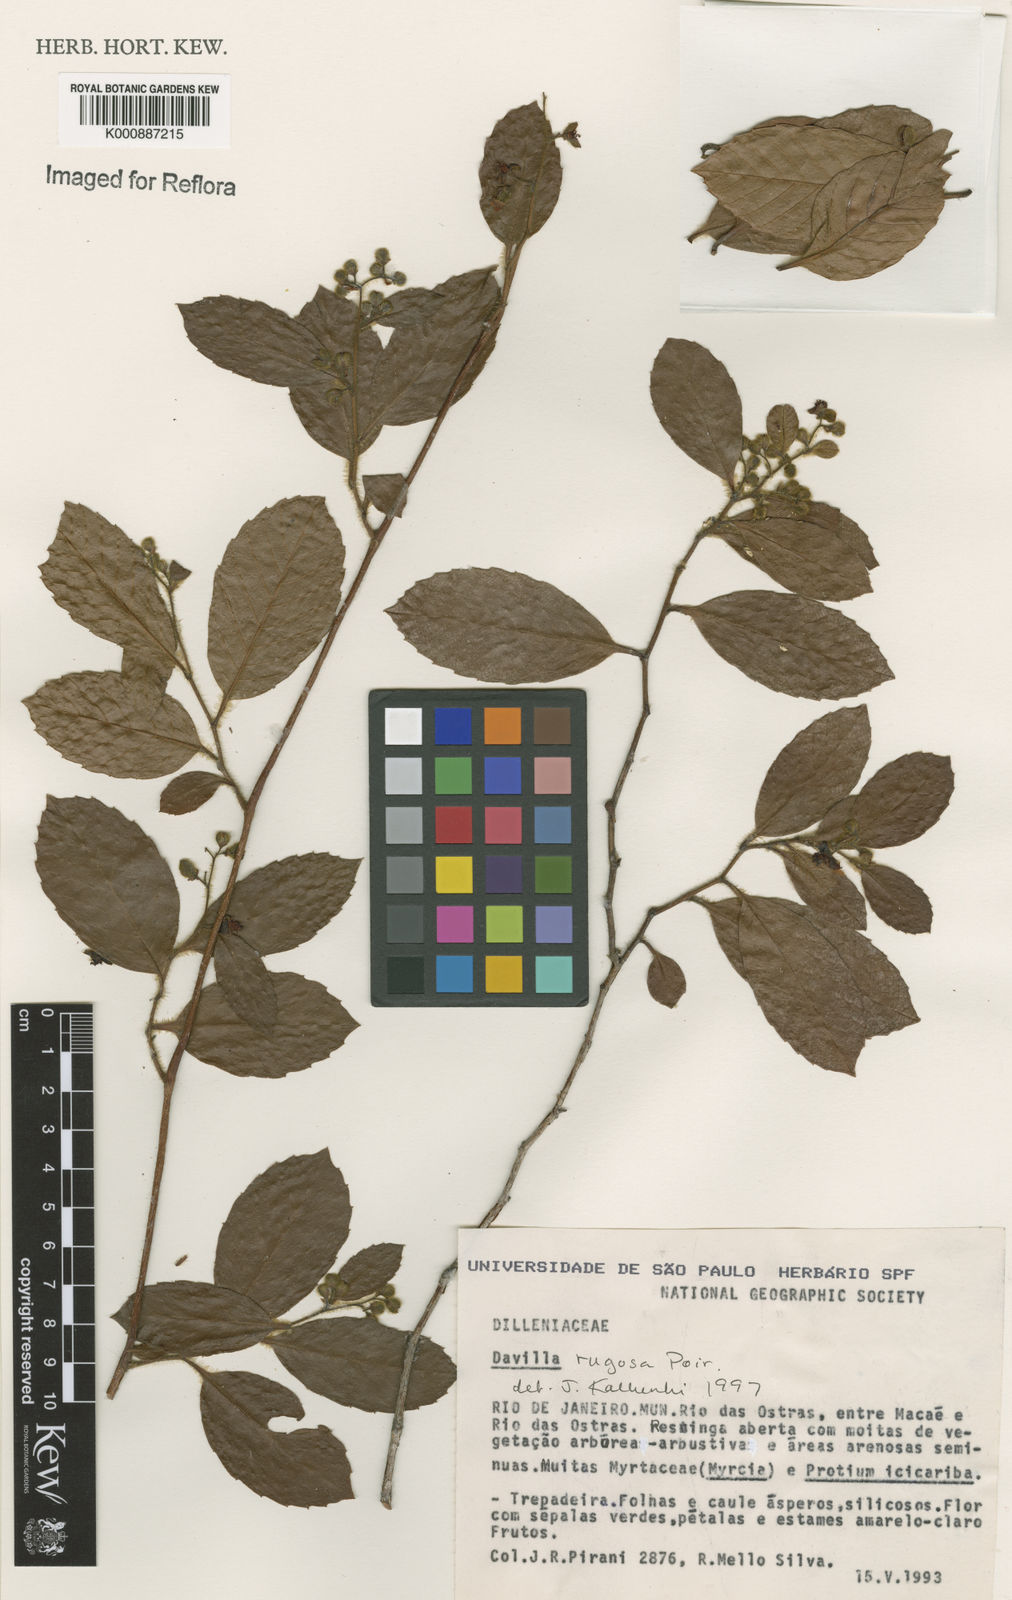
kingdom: Plantae
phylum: Tracheophyta
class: Magnoliopsida
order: Dilleniales
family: Dilleniaceae
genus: Davilla
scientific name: Davilla rugosa
